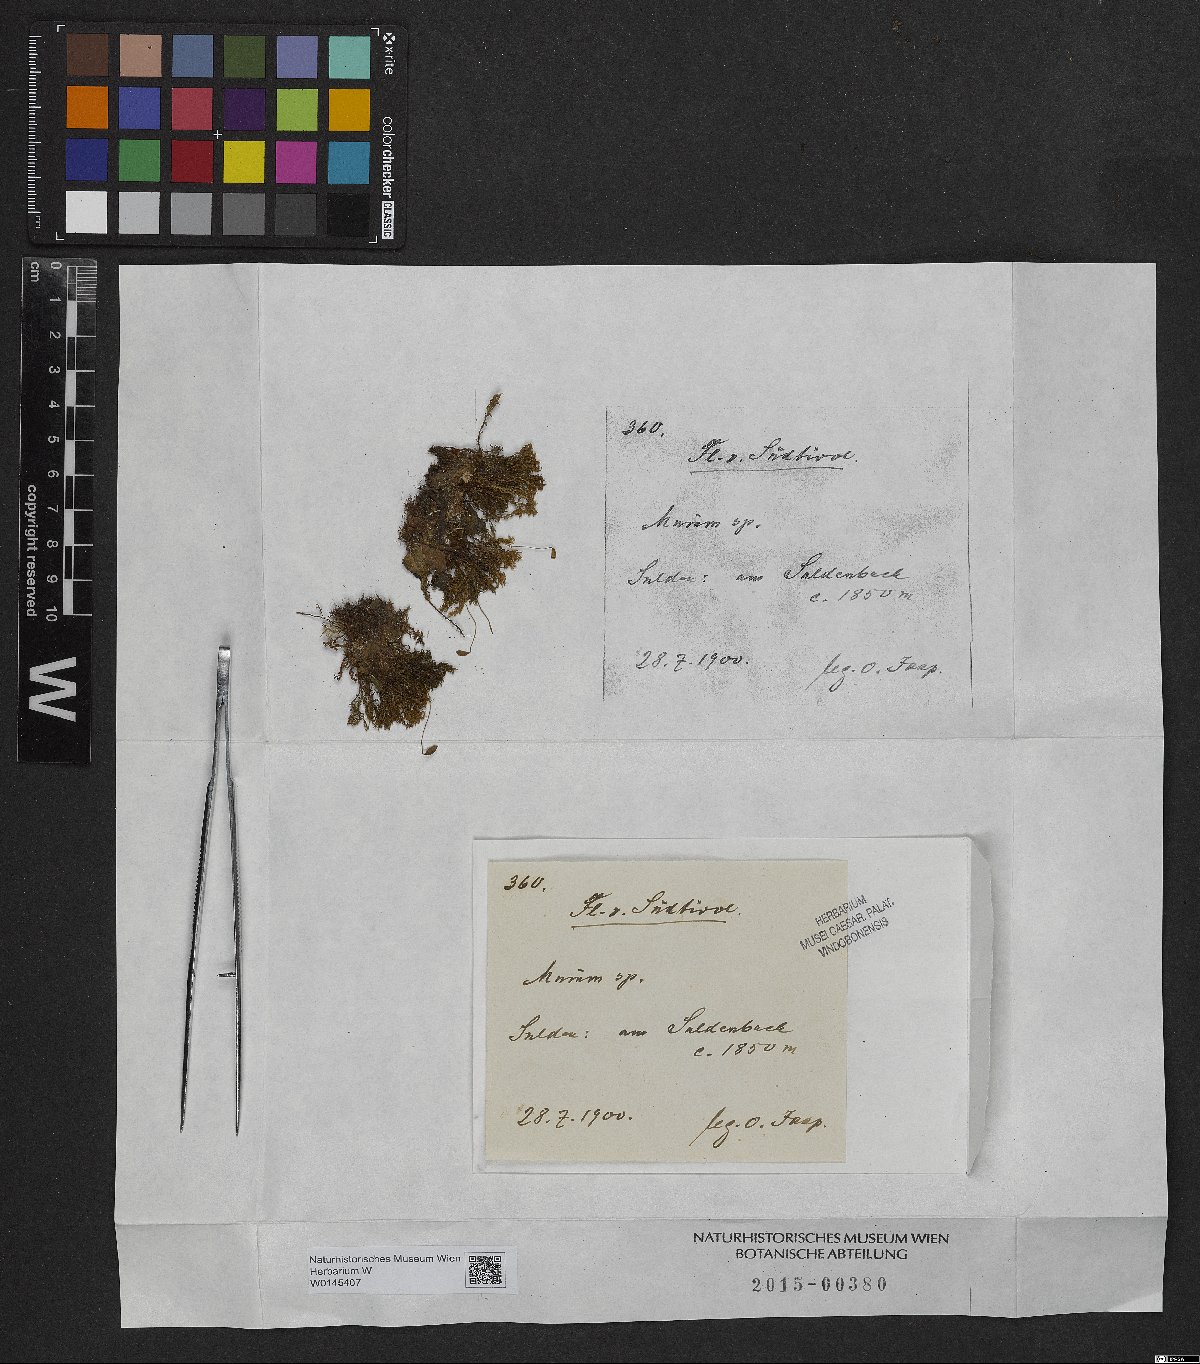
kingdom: Plantae
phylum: Bryophyta
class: Bryopsida
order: Bryales
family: Mniaceae
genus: Mnium
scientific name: Mnium
